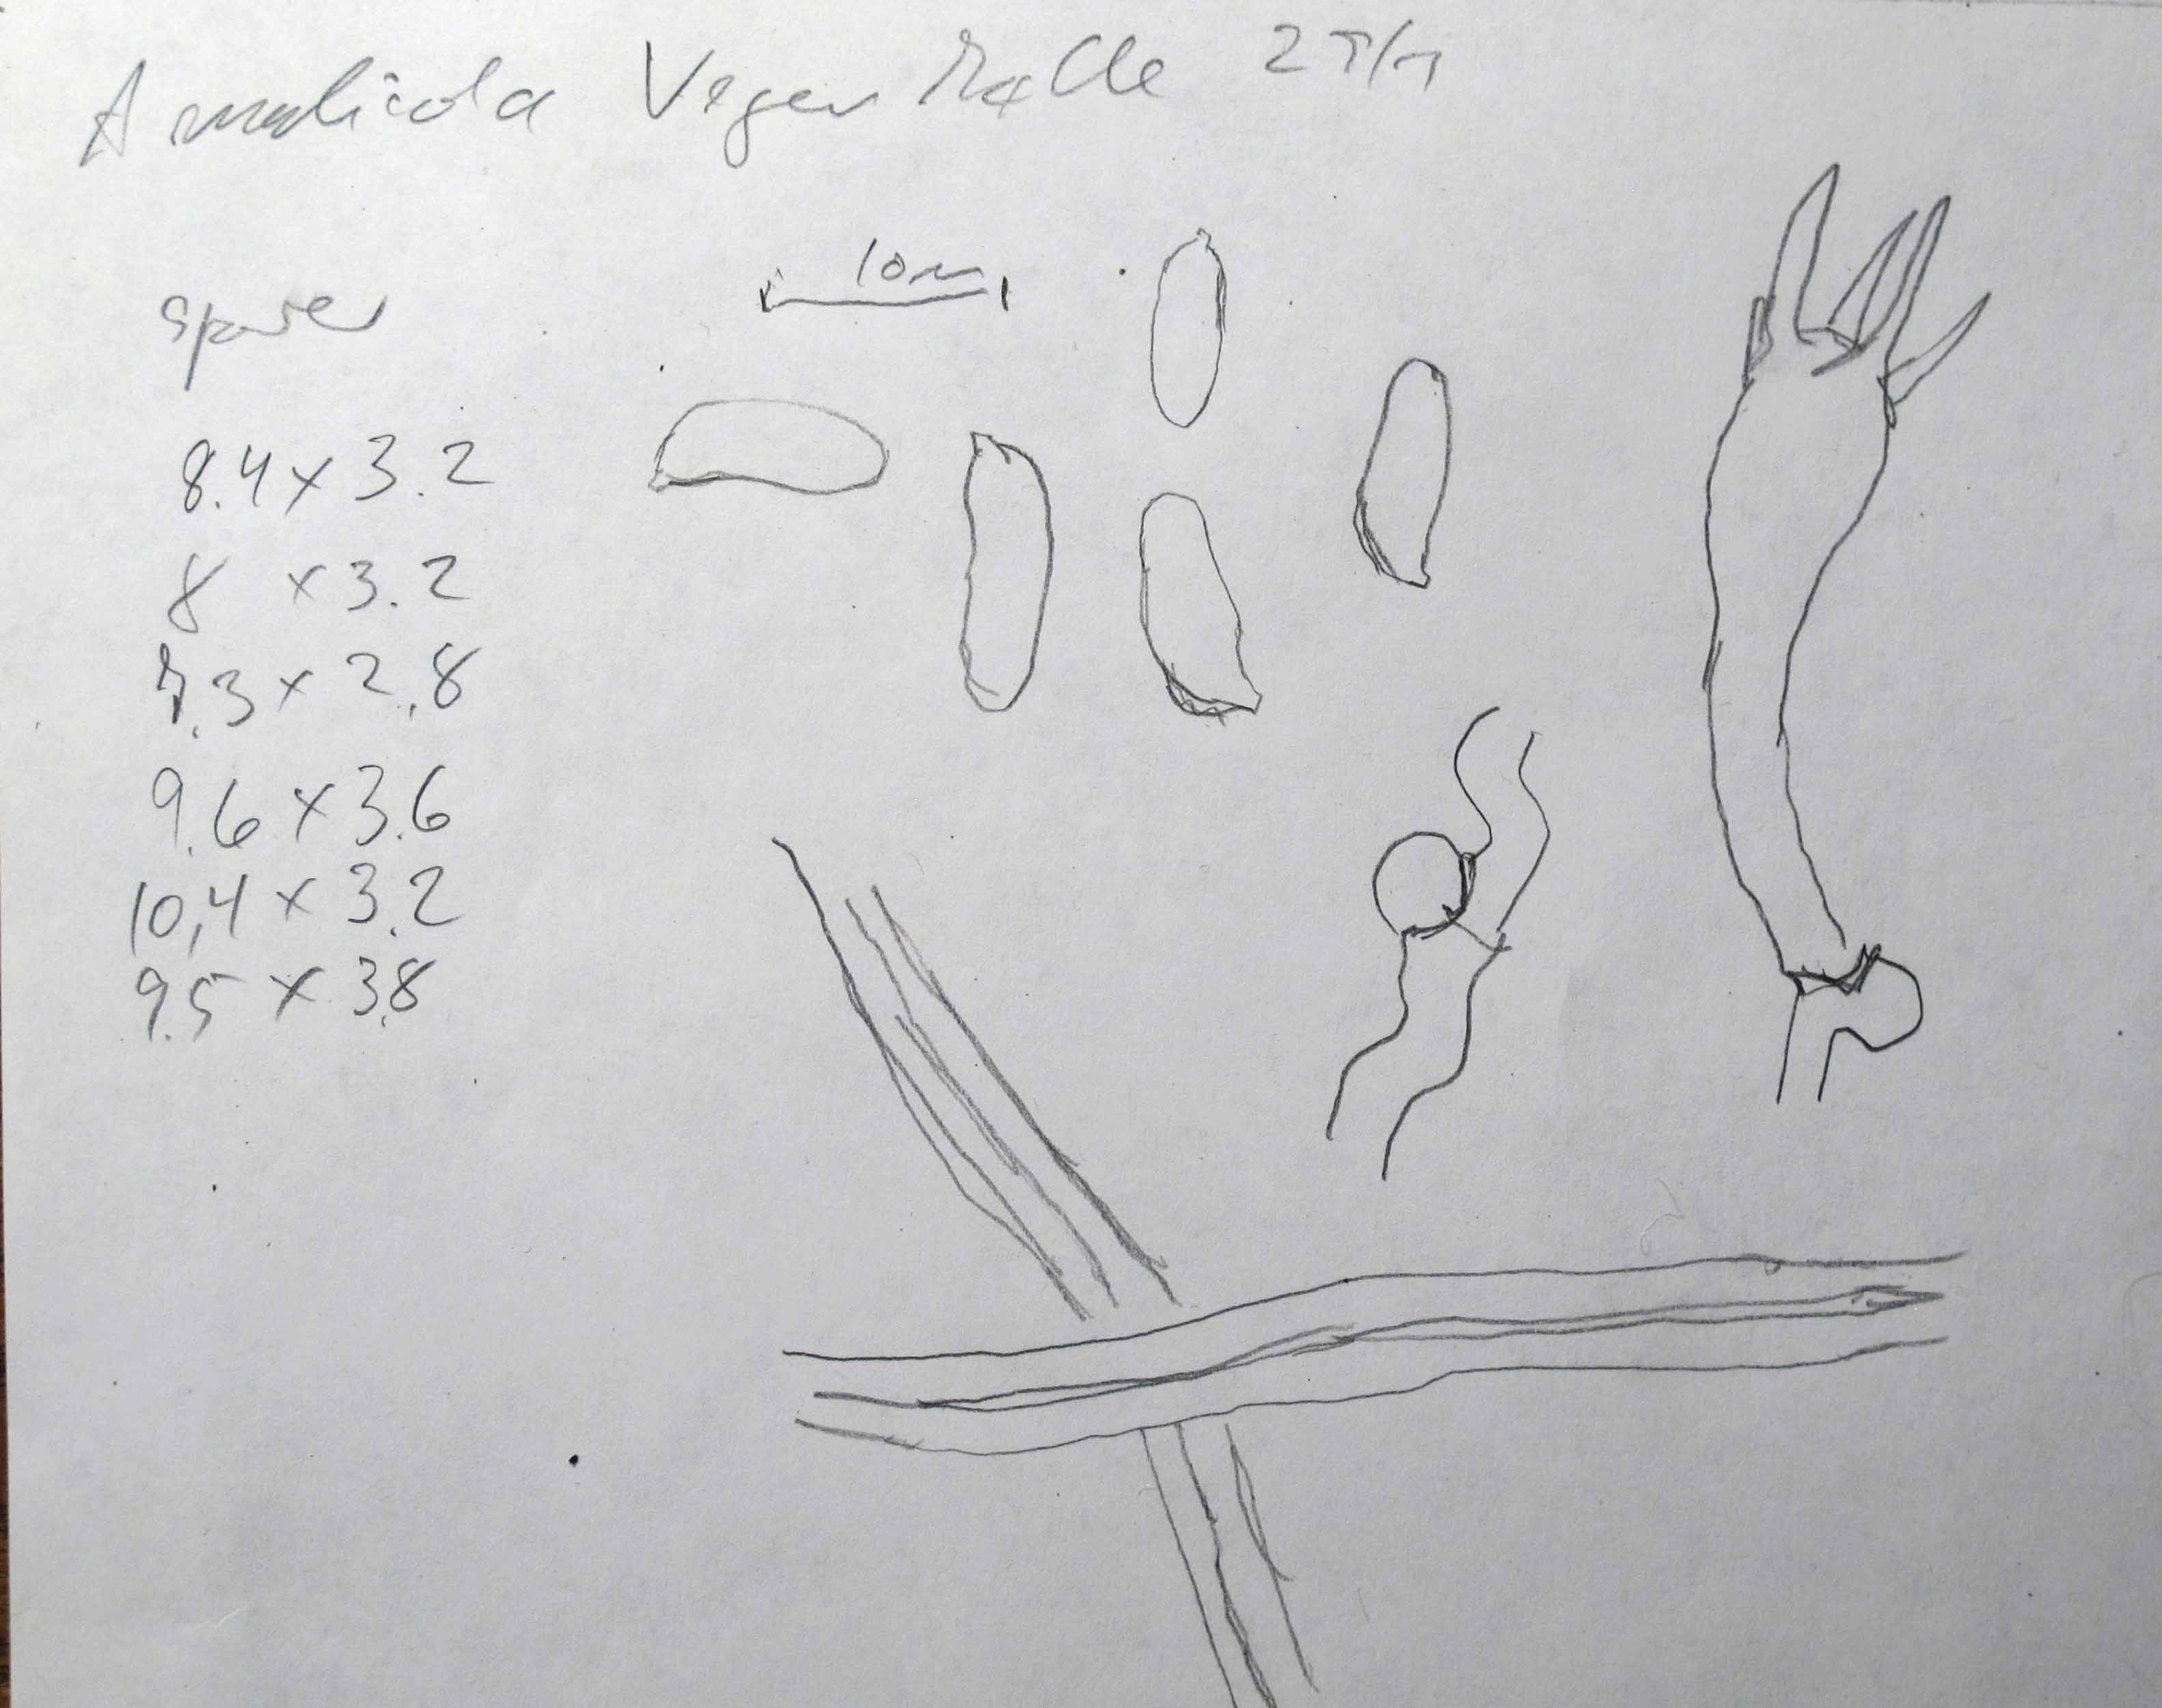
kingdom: Fungi
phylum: Basidiomycota
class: Agaricomycetes
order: Polyporales
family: Fomitopsidaceae
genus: Antrodia
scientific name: Antrodia macra
